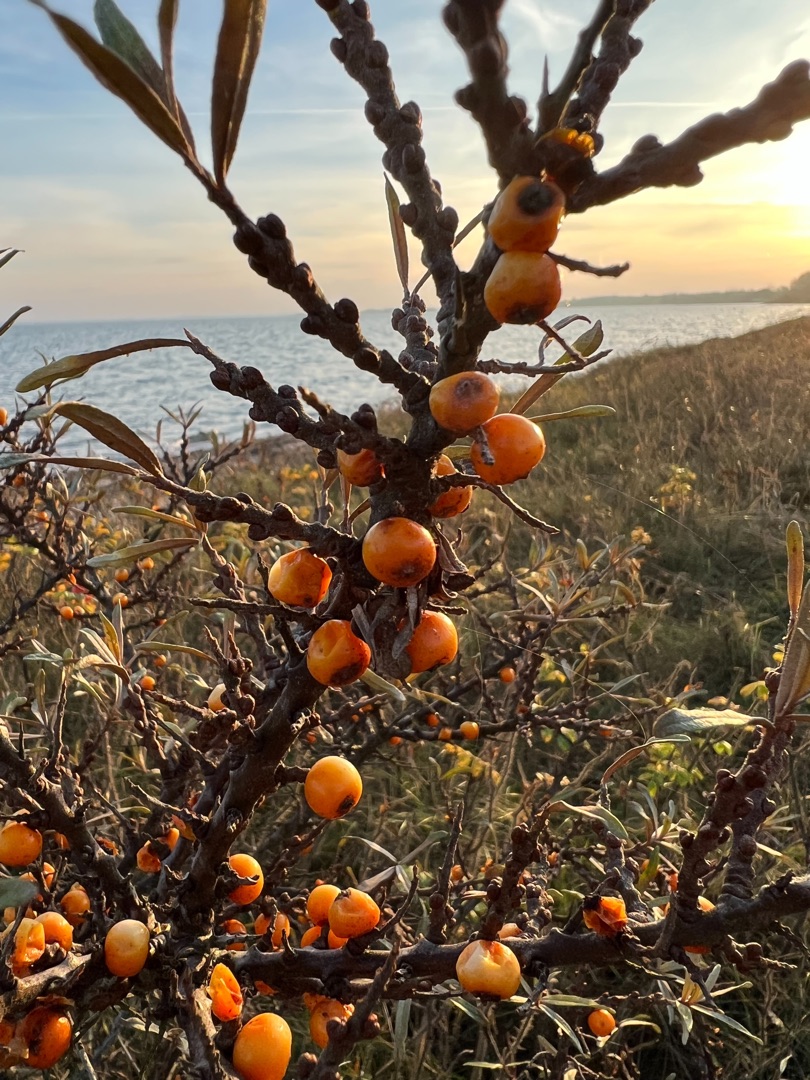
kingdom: Plantae
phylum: Tracheophyta
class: Magnoliopsida
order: Rosales
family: Elaeagnaceae
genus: Hippophae
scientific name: Hippophae rhamnoides
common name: Havtorn
